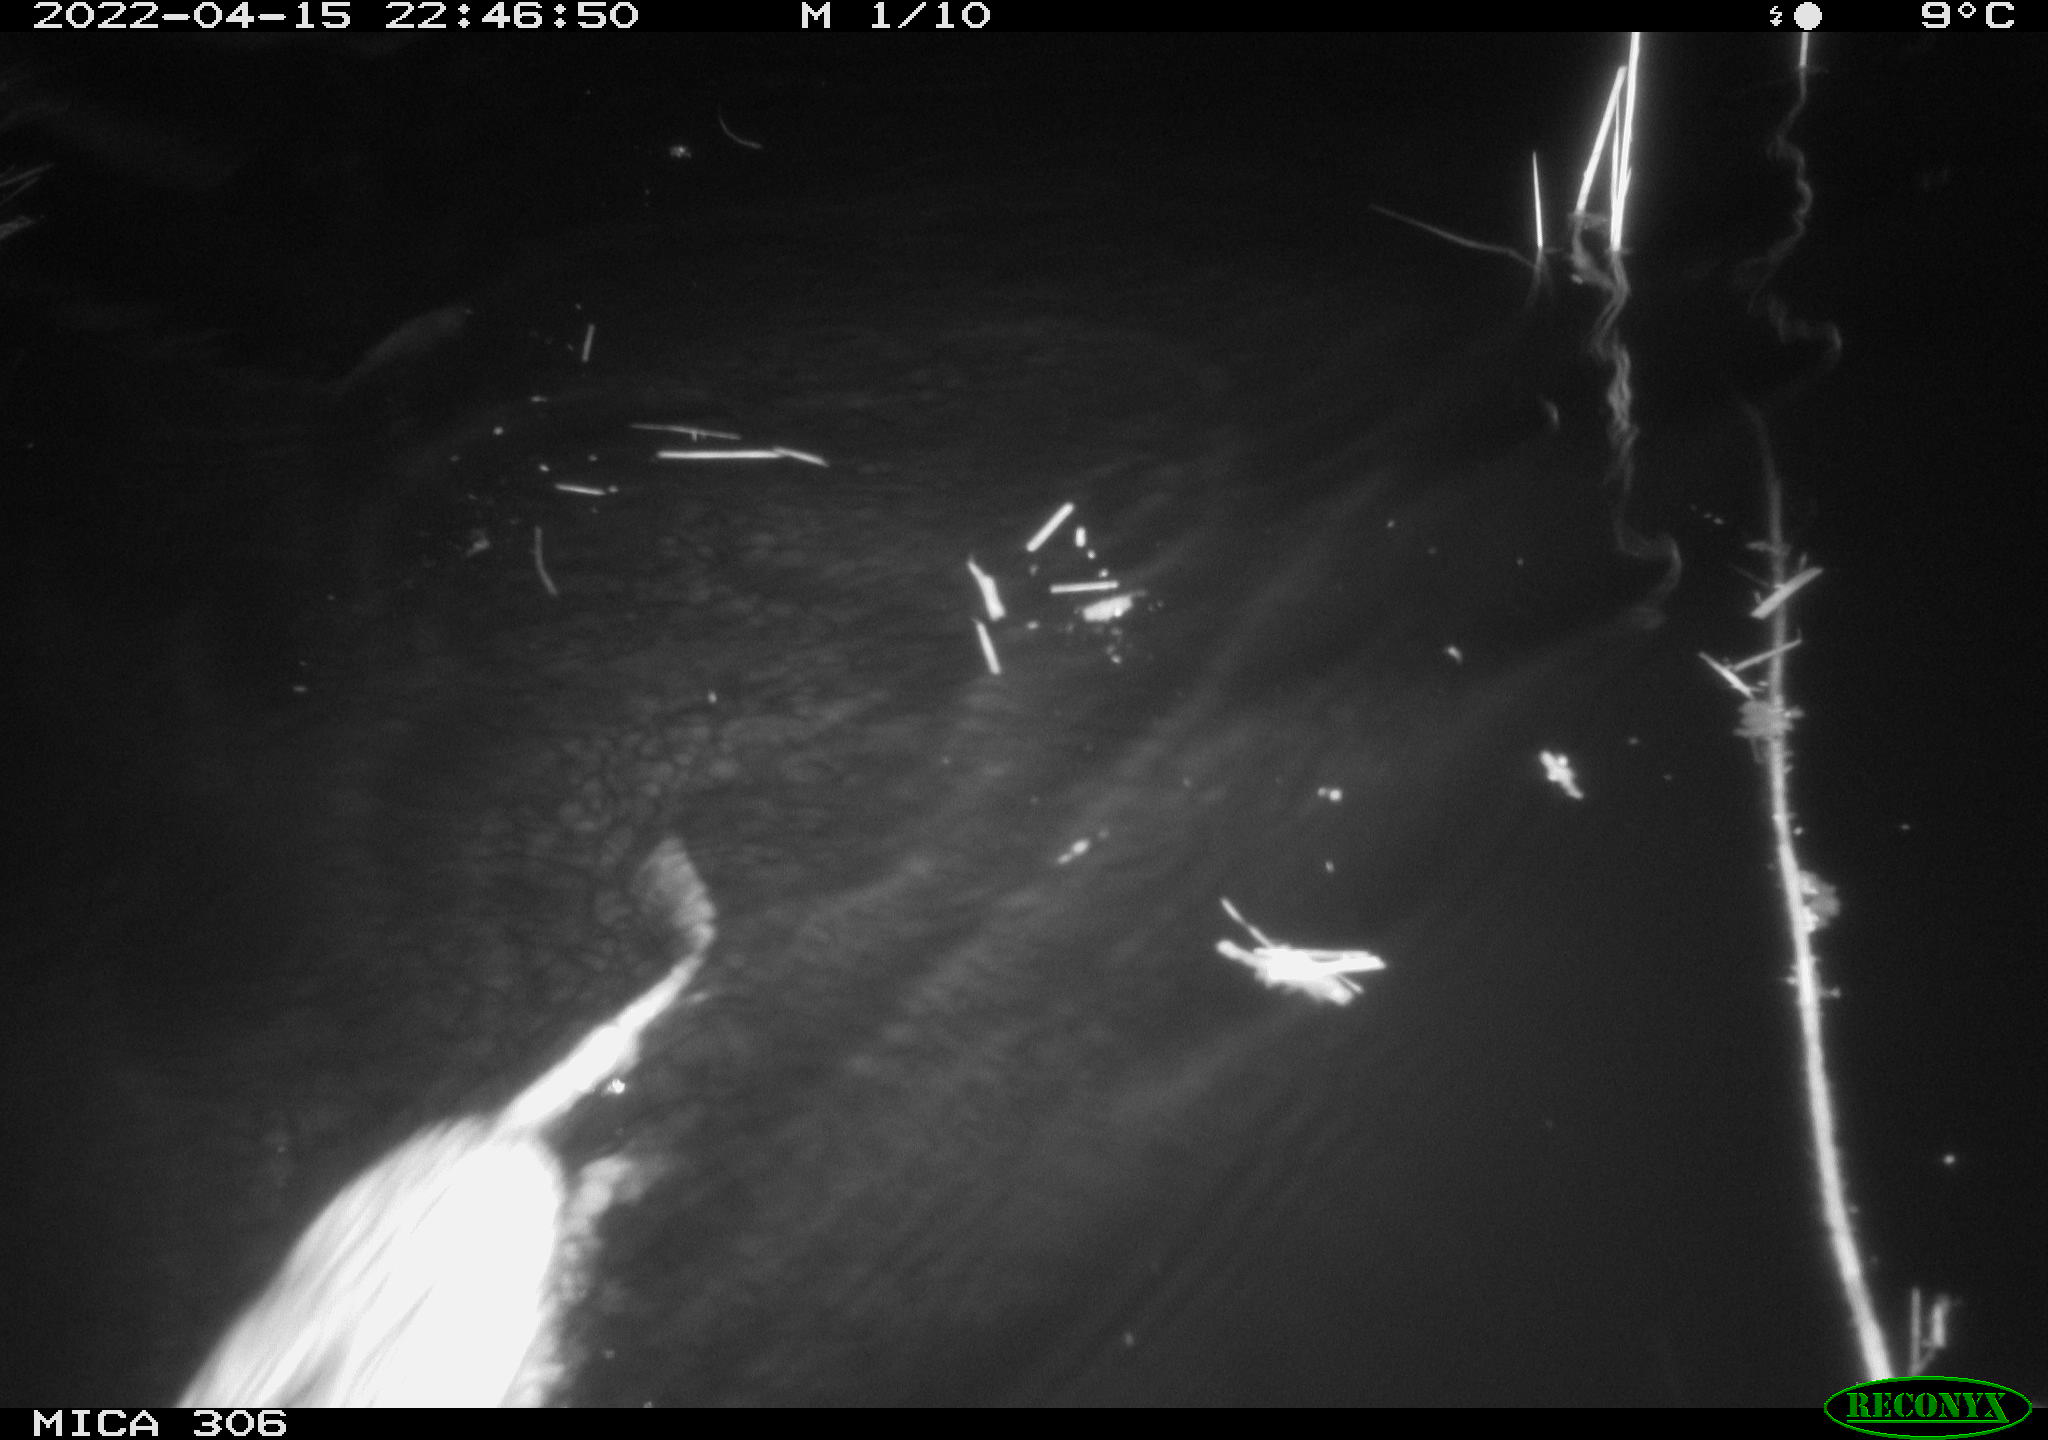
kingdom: Animalia
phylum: Chordata
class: Mammalia
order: Rodentia
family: Cricetidae
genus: Ondatra
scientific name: Ondatra zibethicus
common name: Muskrat
